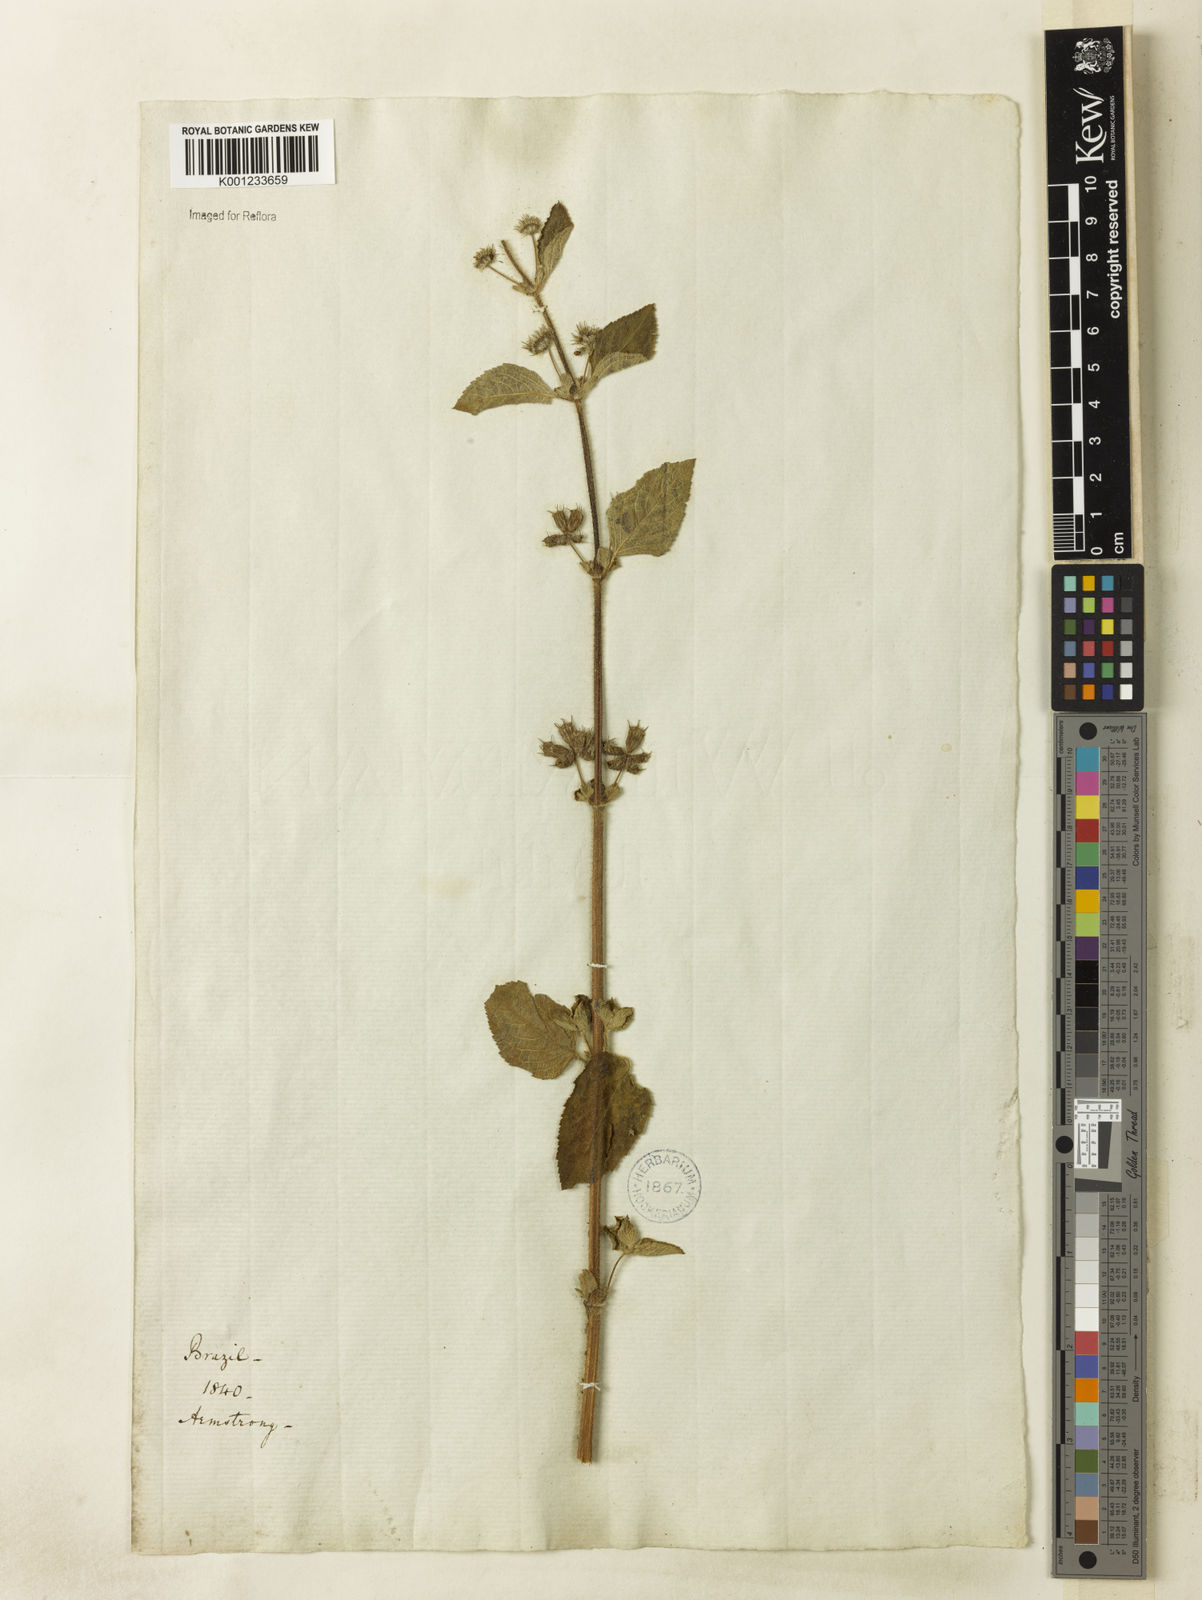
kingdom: Plantae
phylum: Tracheophyta
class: Magnoliopsida
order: Lamiales
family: Lamiaceae
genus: Mesosphaerum
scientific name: Mesosphaerum suaveolens
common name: Pignut
